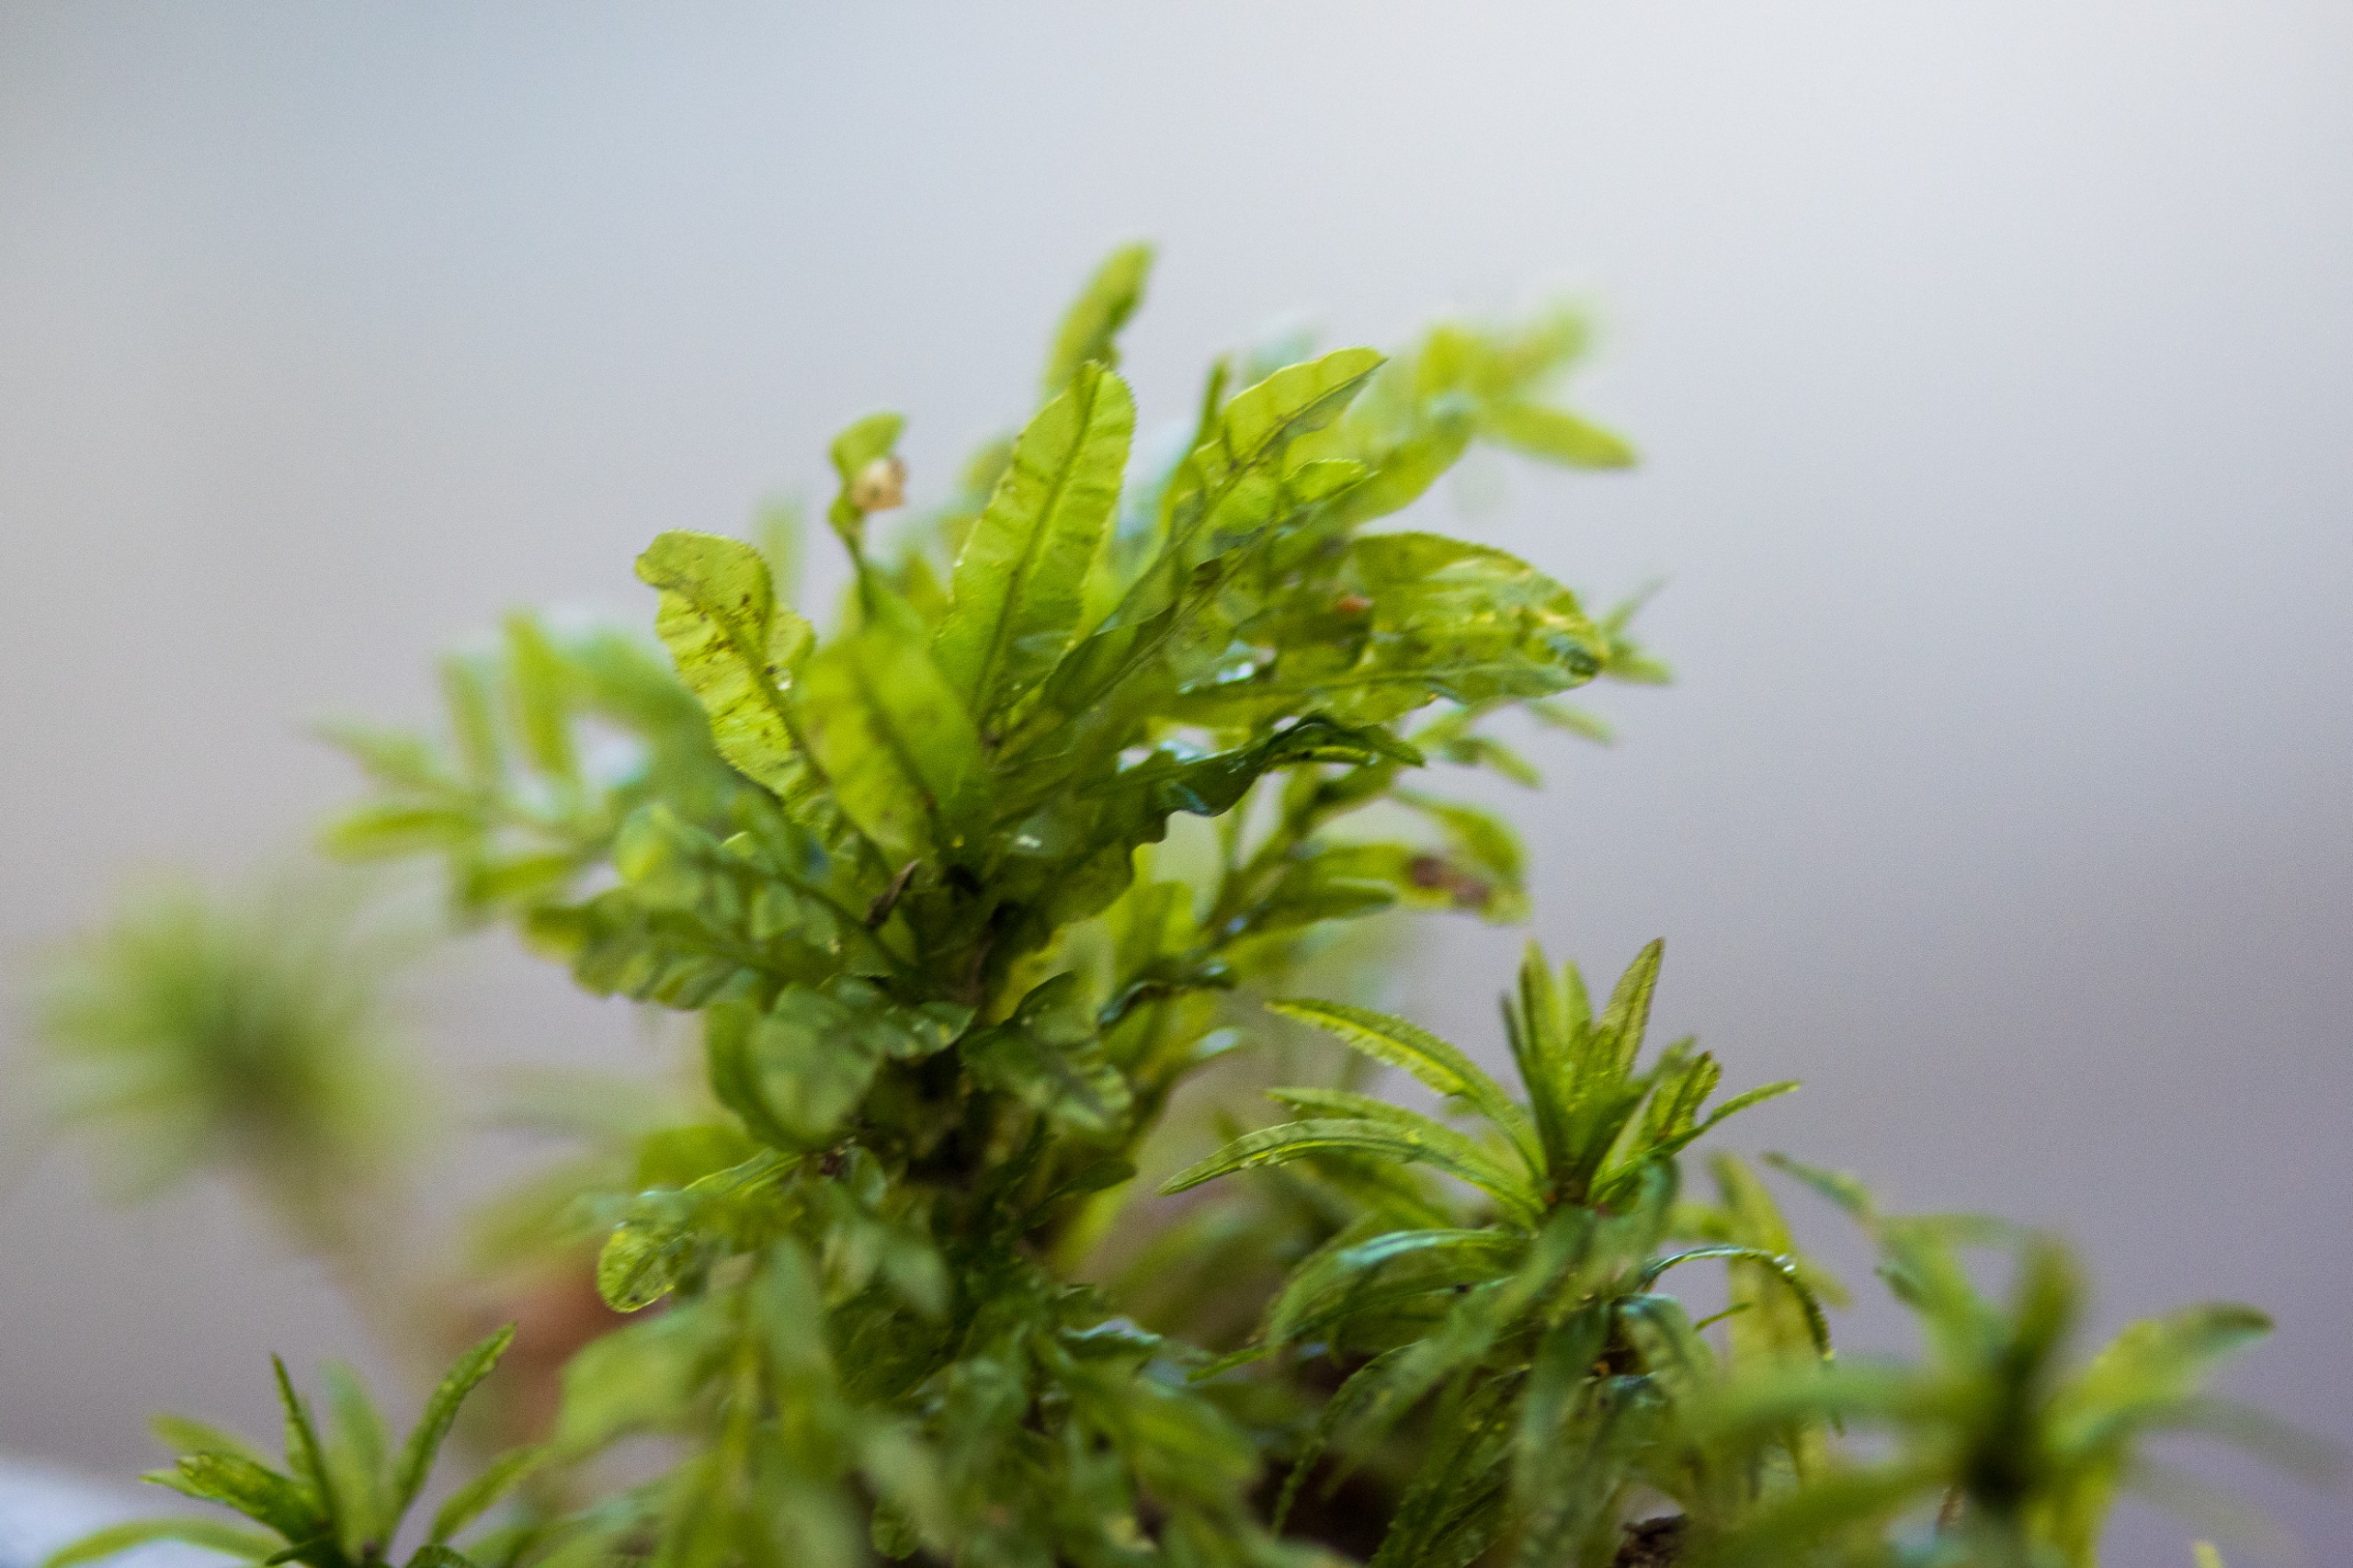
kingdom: Plantae
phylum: Bryophyta
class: Bryopsida
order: Bryales
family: Mniaceae
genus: Plagiomnium
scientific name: Plagiomnium undulatum
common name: Bølget krybstjerne
